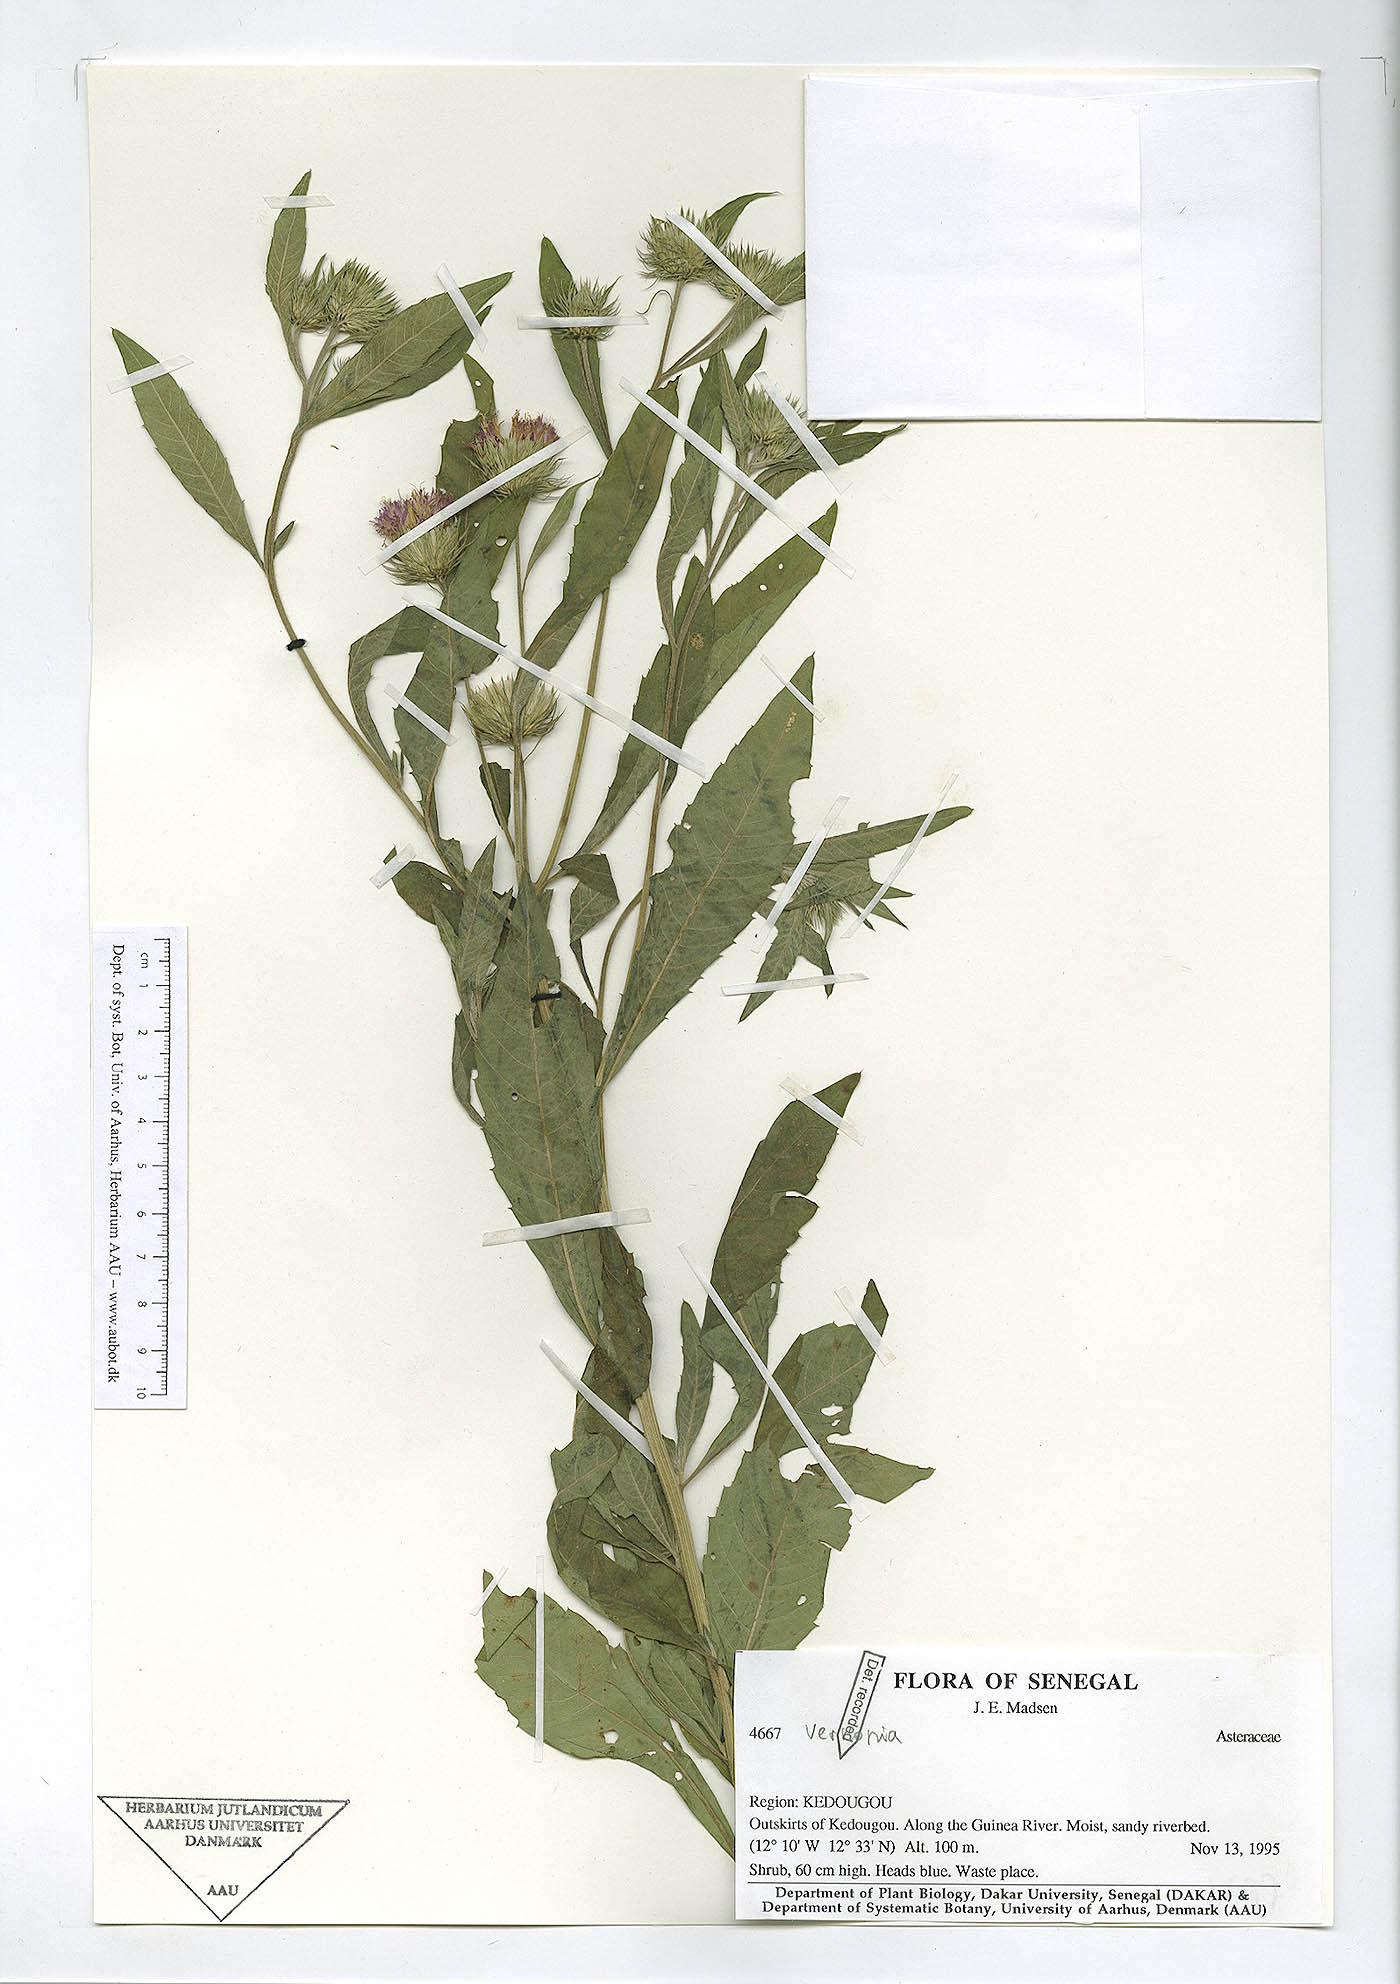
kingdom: Plantae
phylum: Tracheophyta
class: Magnoliopsida
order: Asterales
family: Asteraceae
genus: Vernonia
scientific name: Vernonia
